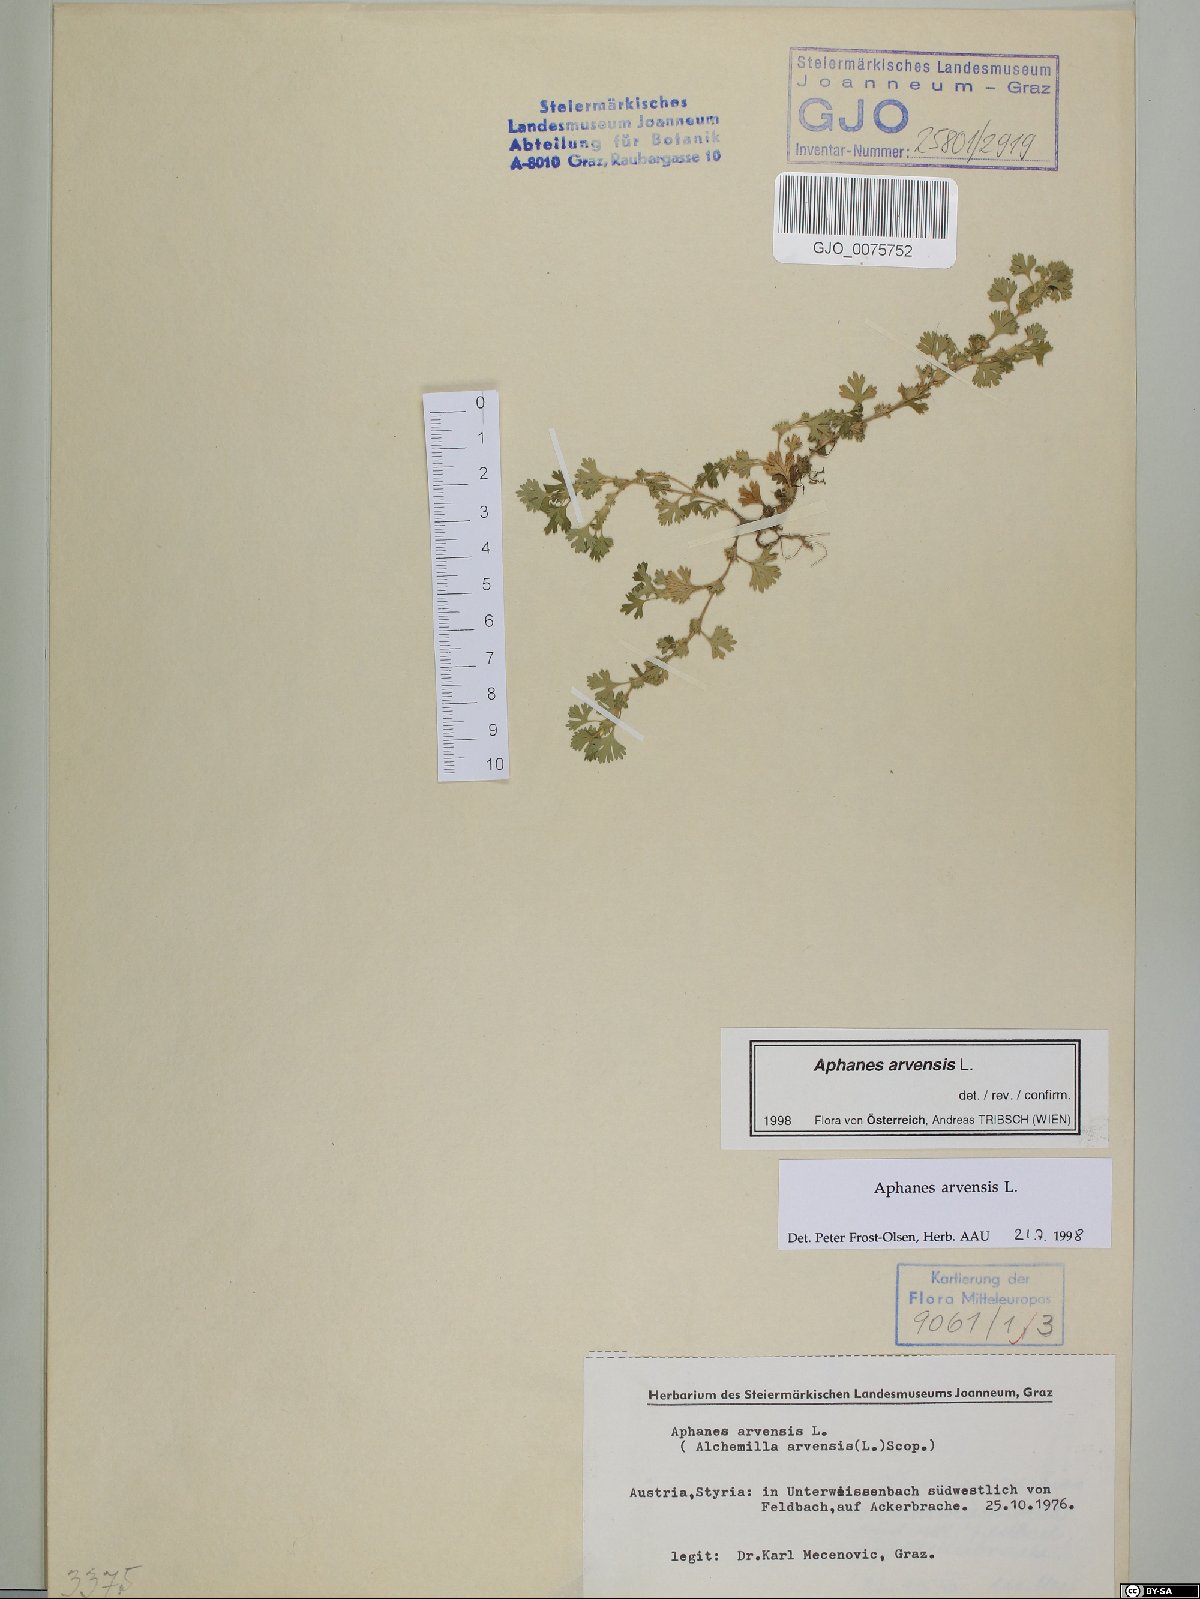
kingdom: Plantae
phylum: Tracheophyta
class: Magnoliopsida
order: Rosales
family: Rosaceae
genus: Aphanes
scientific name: Aphanes arvensis
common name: Parsley-piert
